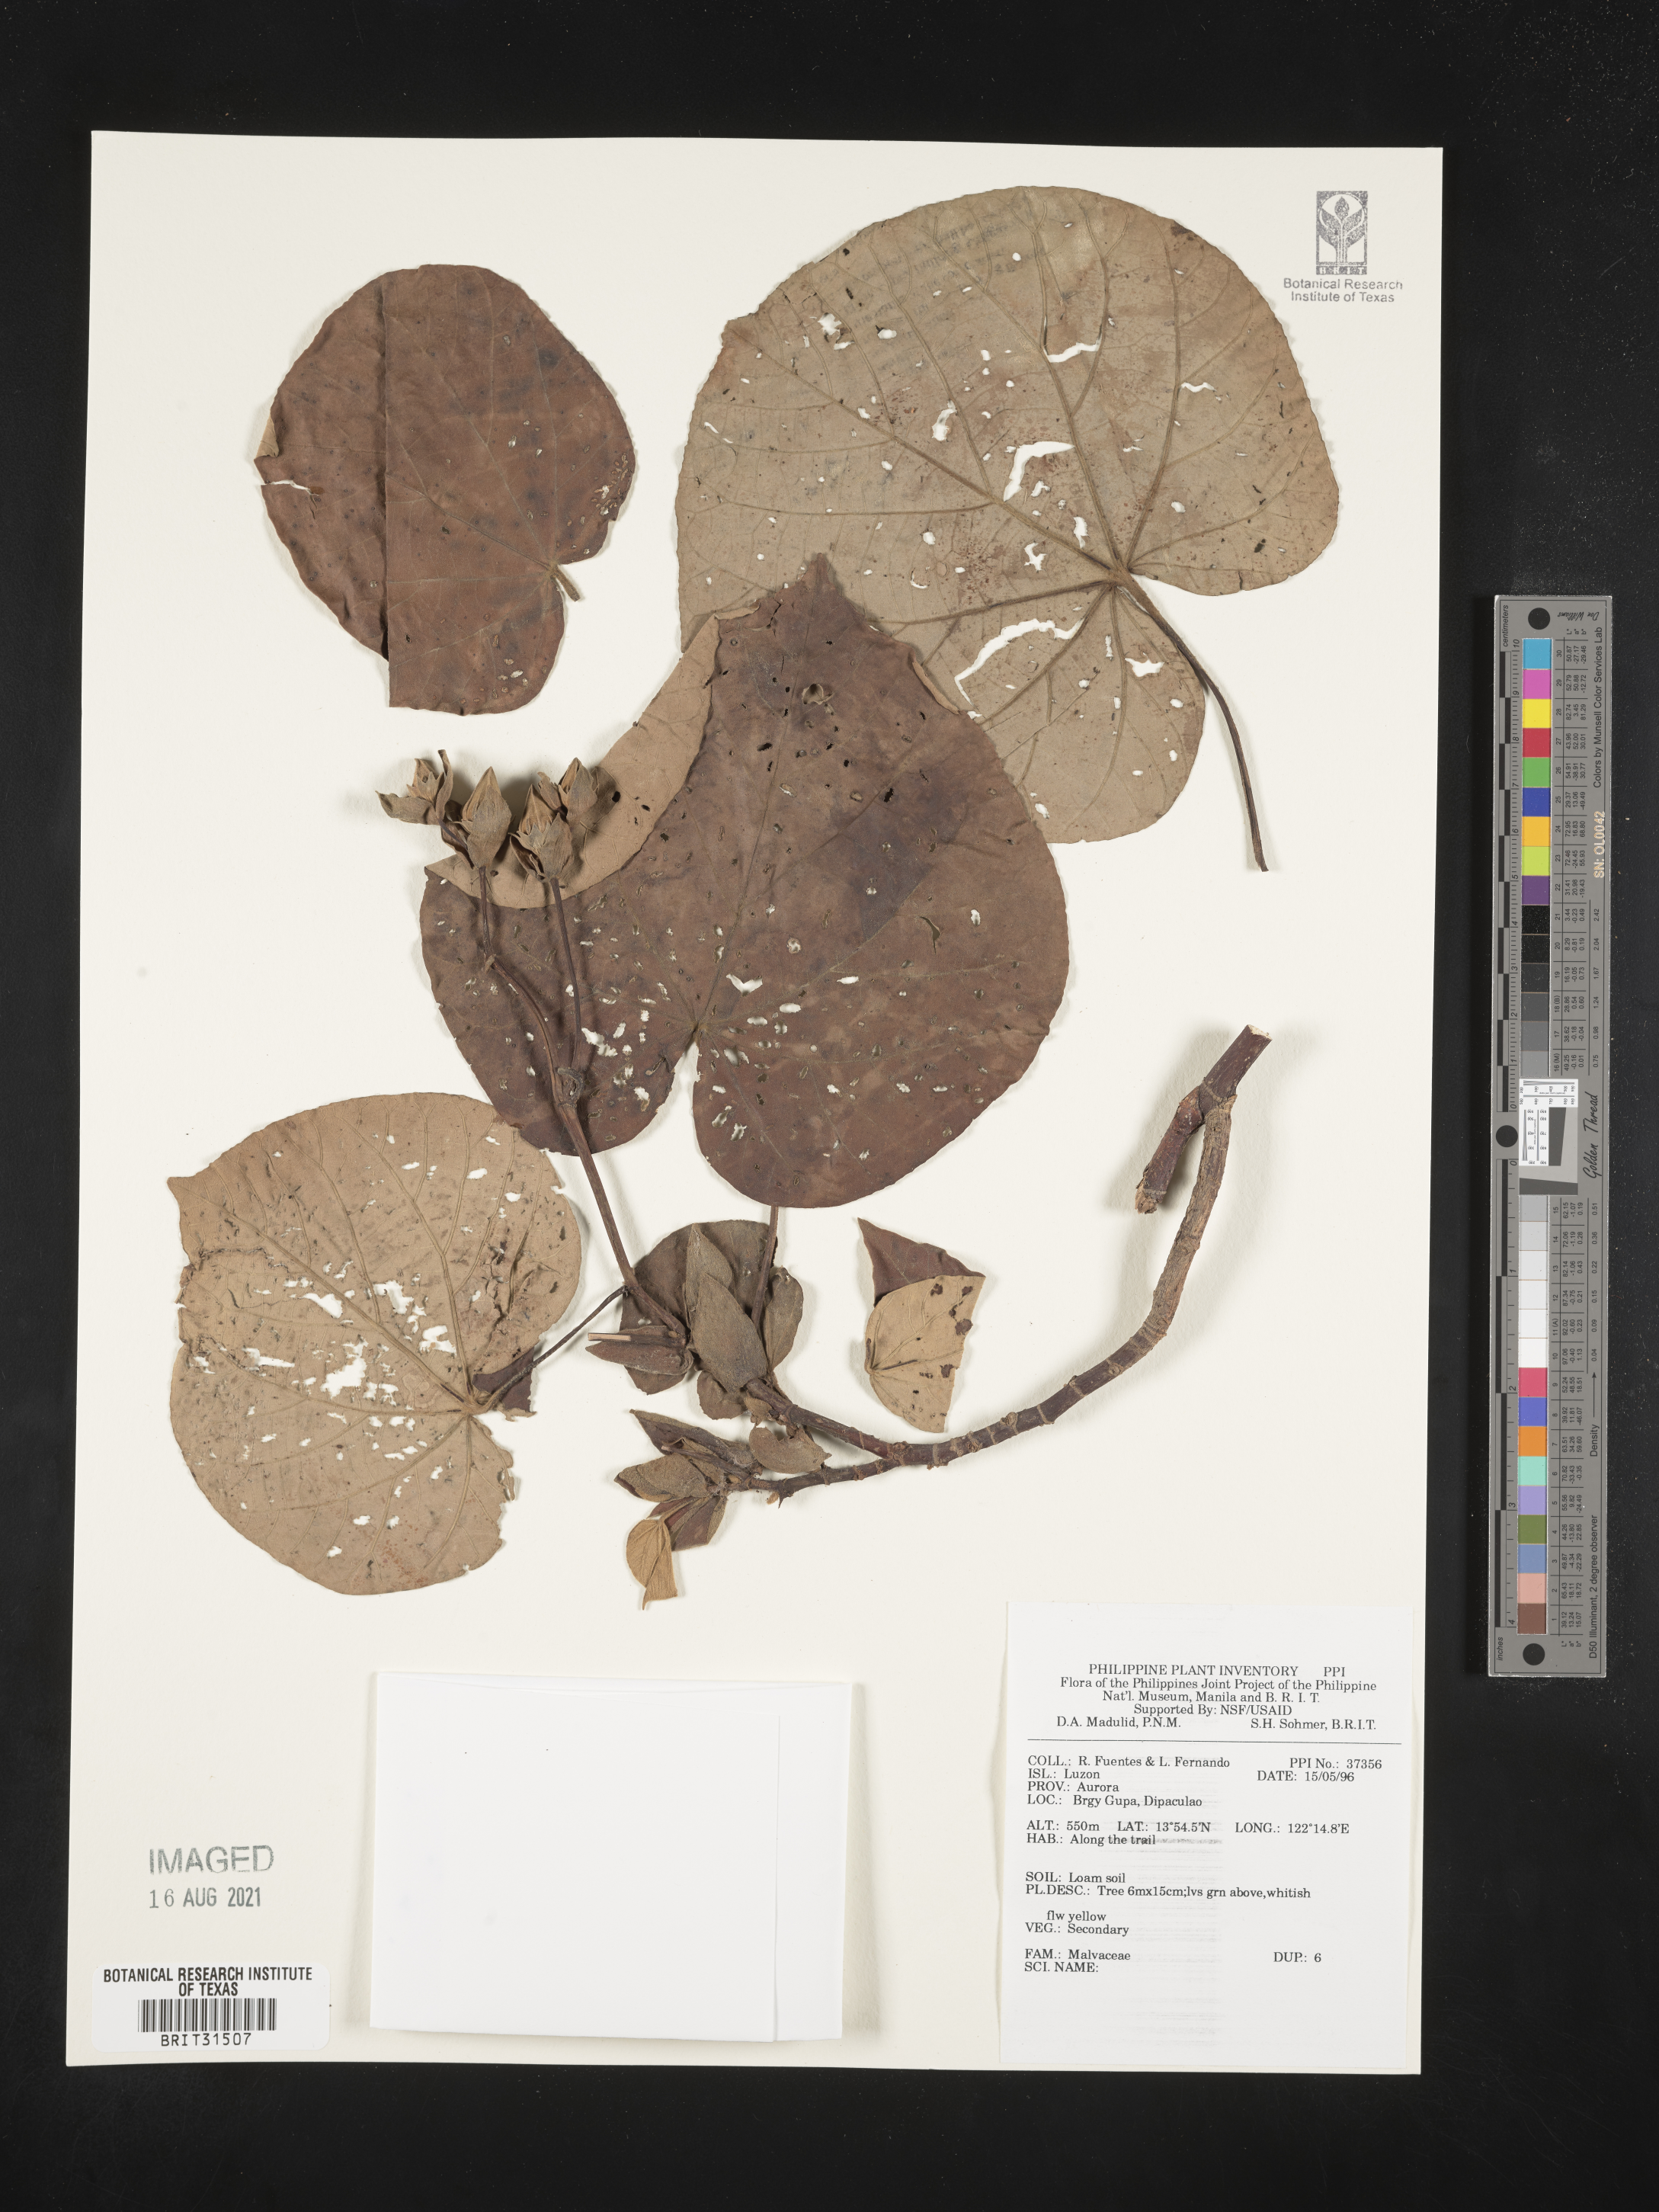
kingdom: Plantae
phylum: Tracheophyta
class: Magnoliopsida
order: Malvales
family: Malvaceae
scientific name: Malvaceae
